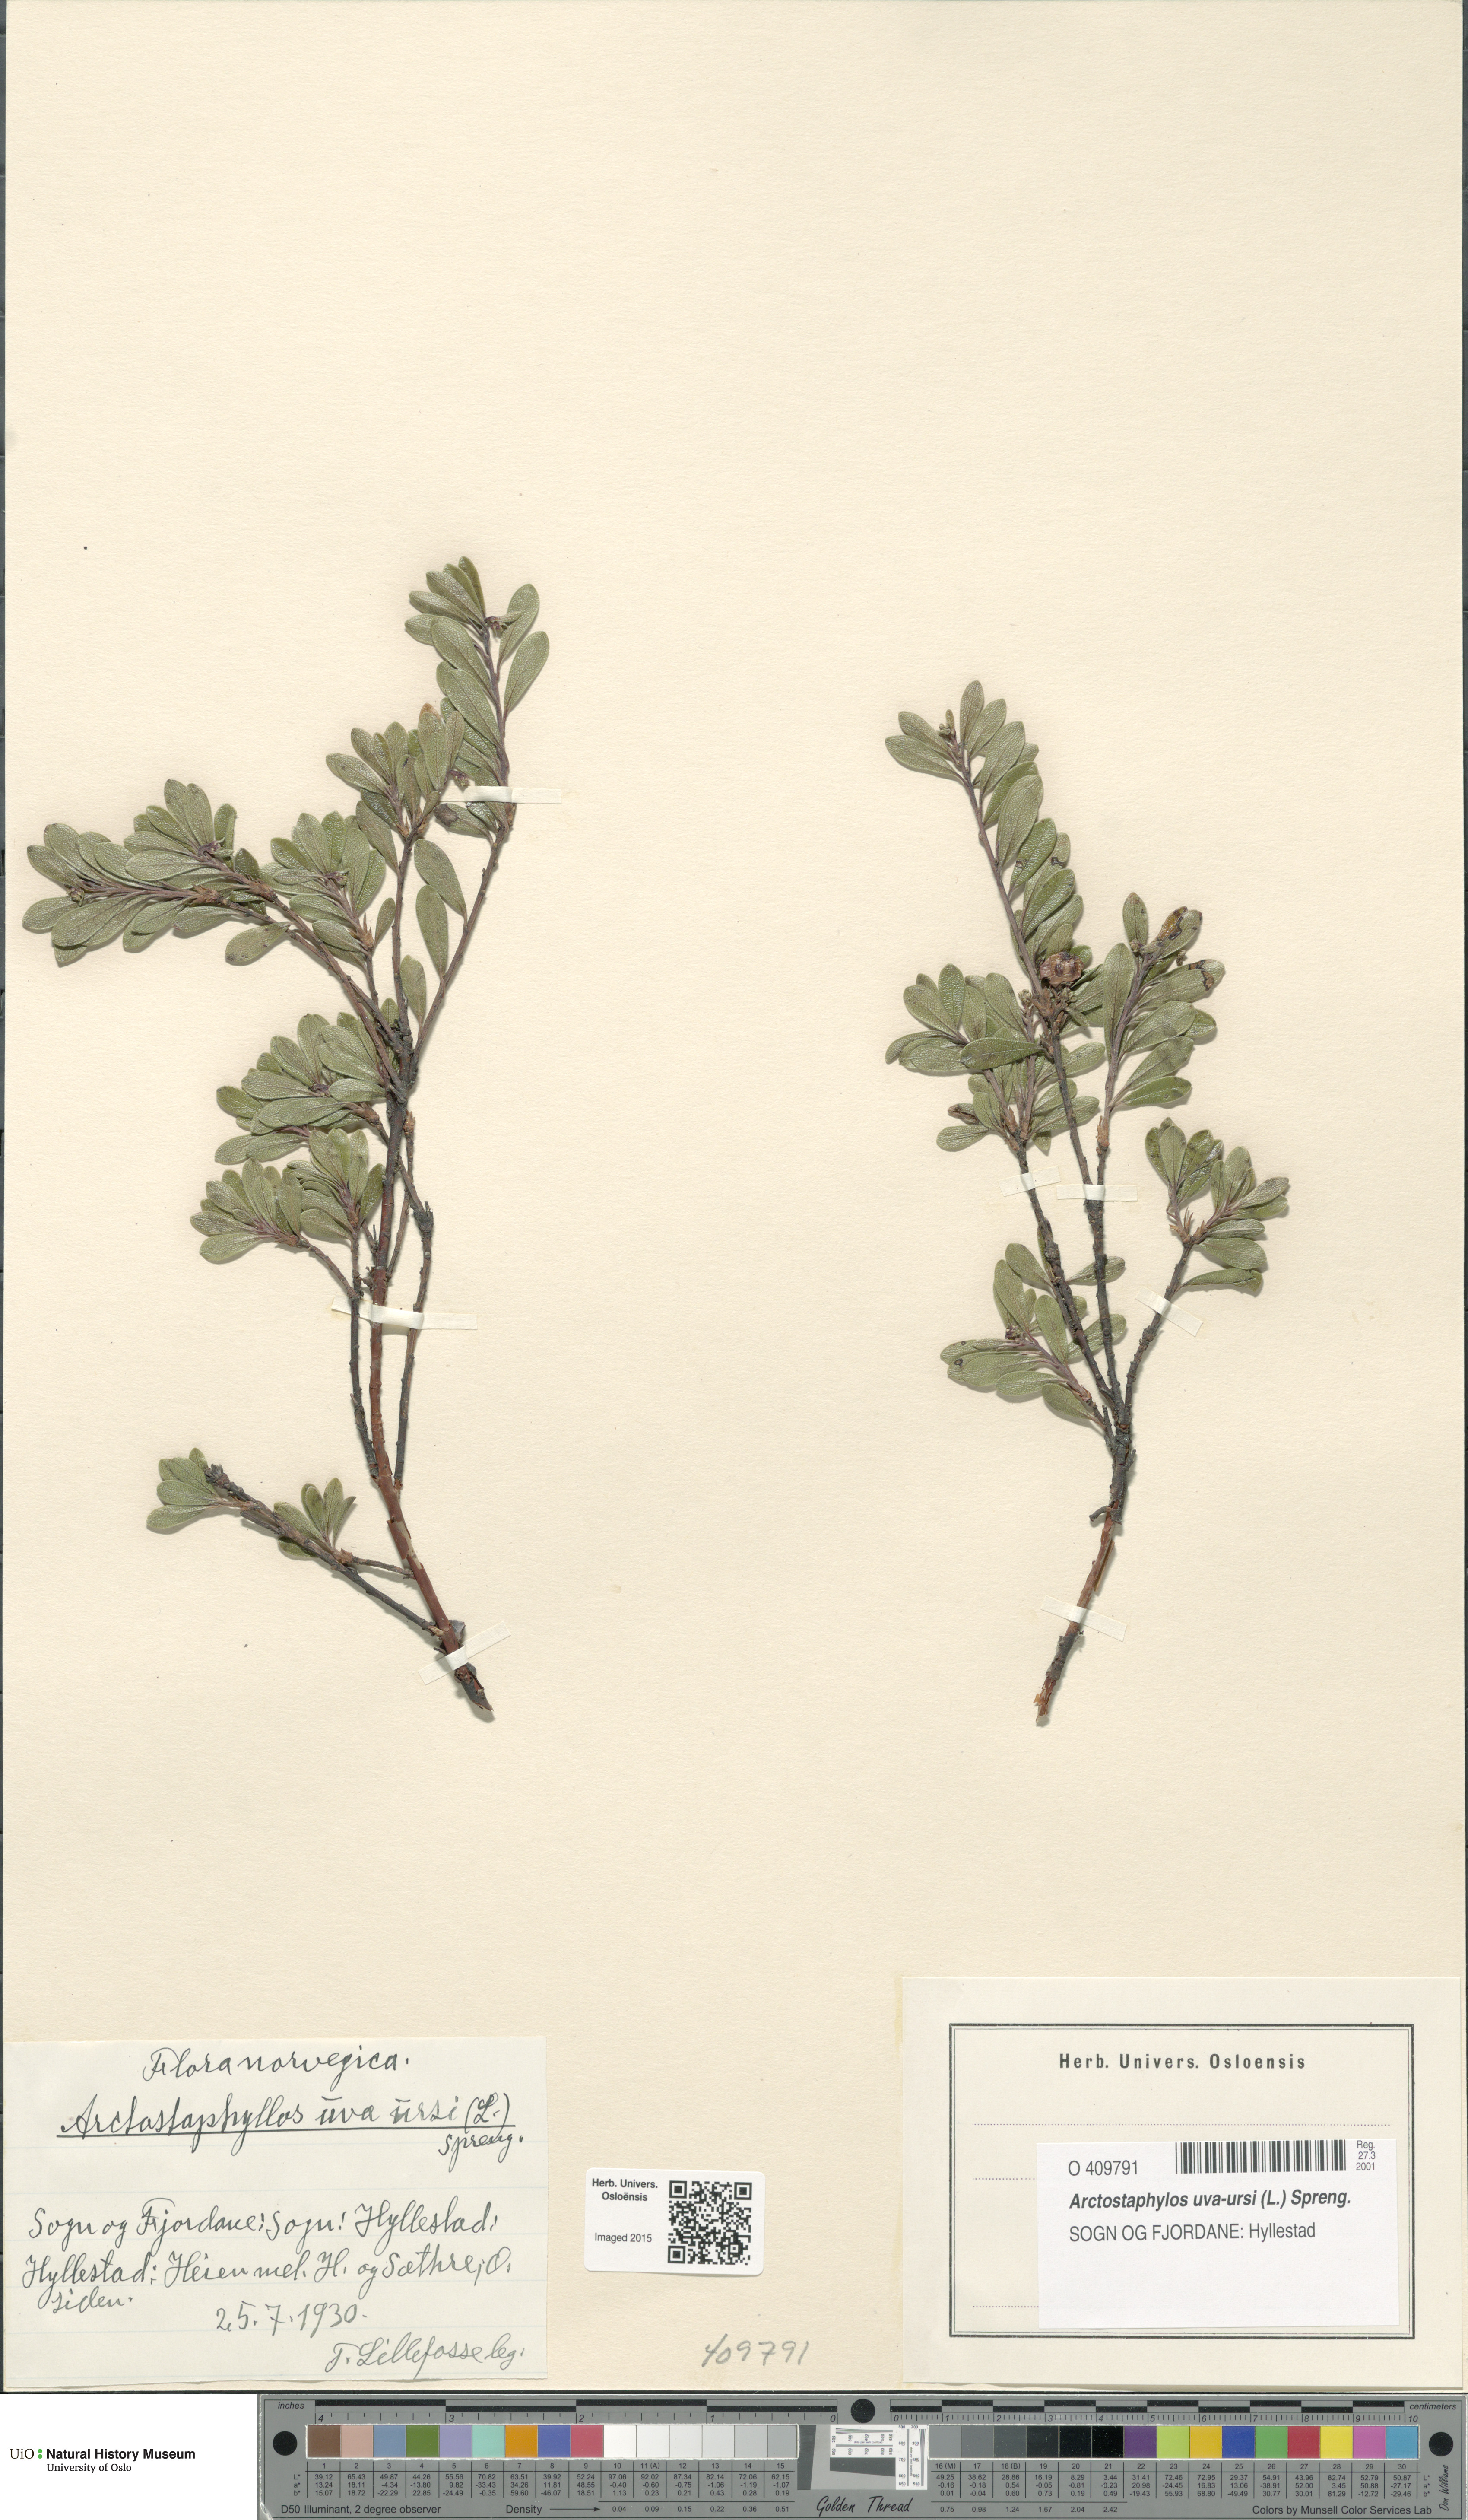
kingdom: Plantae
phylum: Tracheophyta
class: Magnoliopsida
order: Ericales
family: Ericaceae
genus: Arctostaphylos
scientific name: Arctostaphylos uva-ursi
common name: Bearberry
